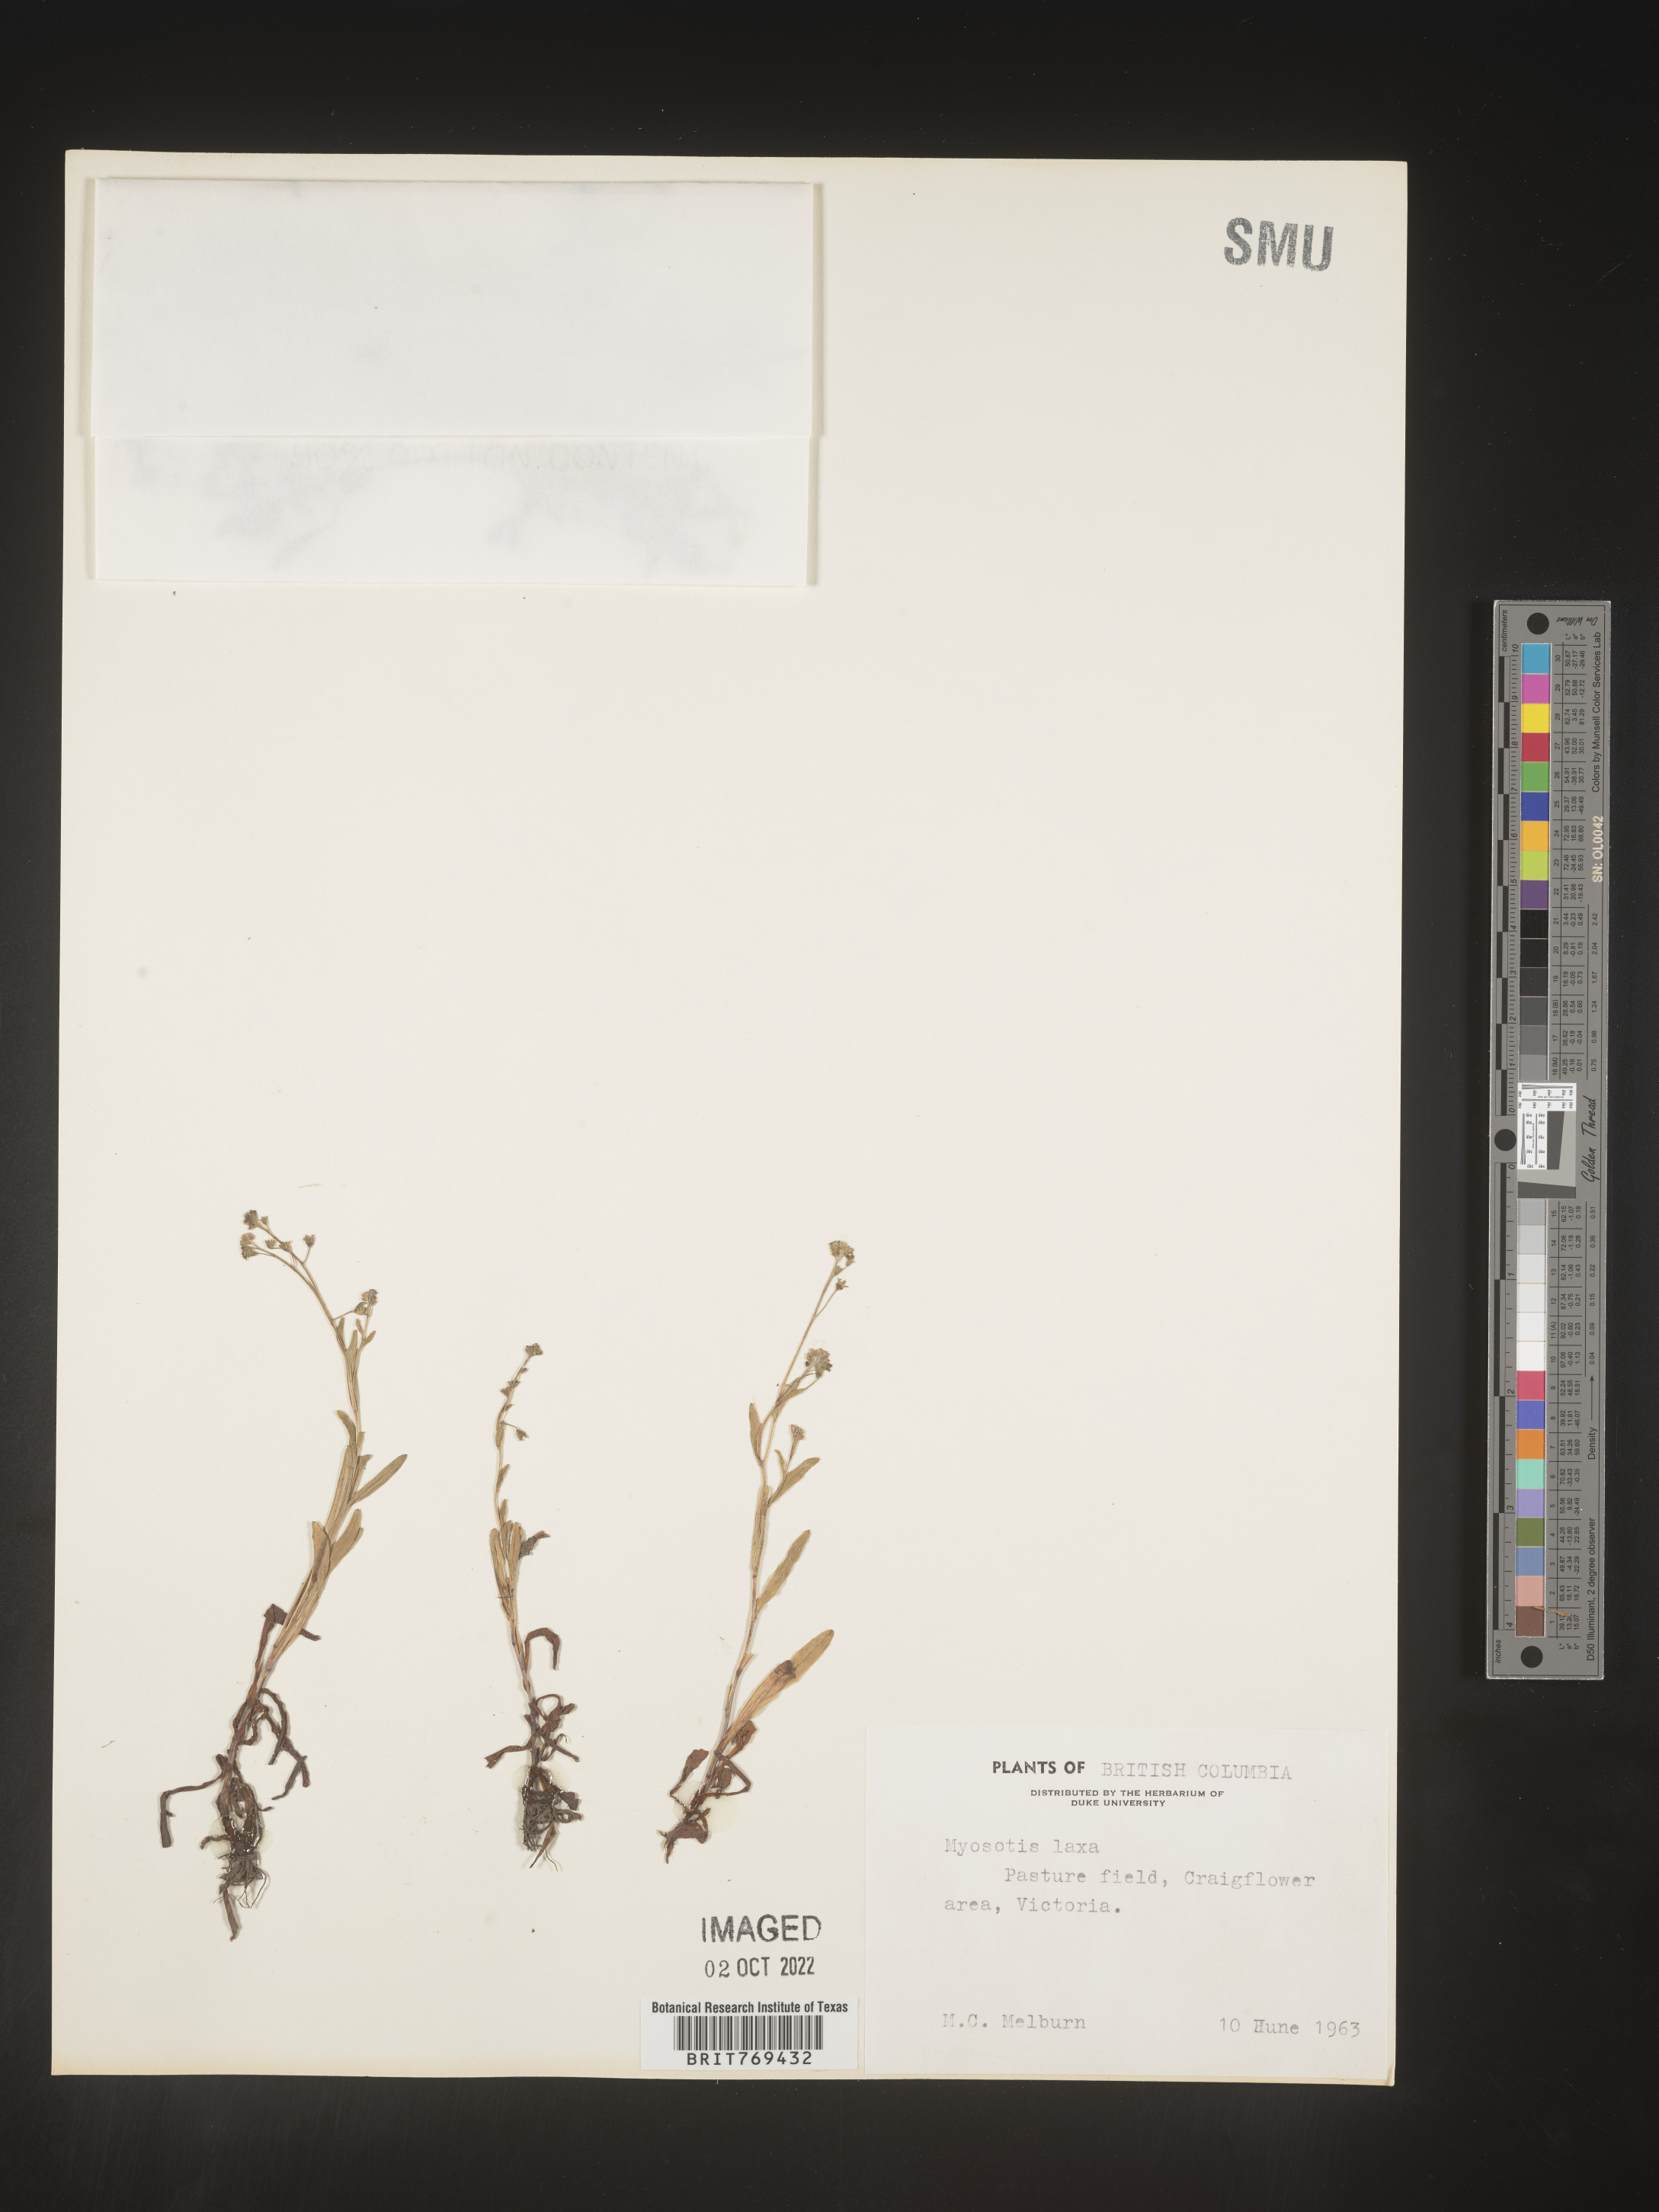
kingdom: Plantae
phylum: Tracheophyta
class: Magnoliopsida
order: Boraginales
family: Boraginaceae
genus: Myosotis
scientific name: Myosotis
